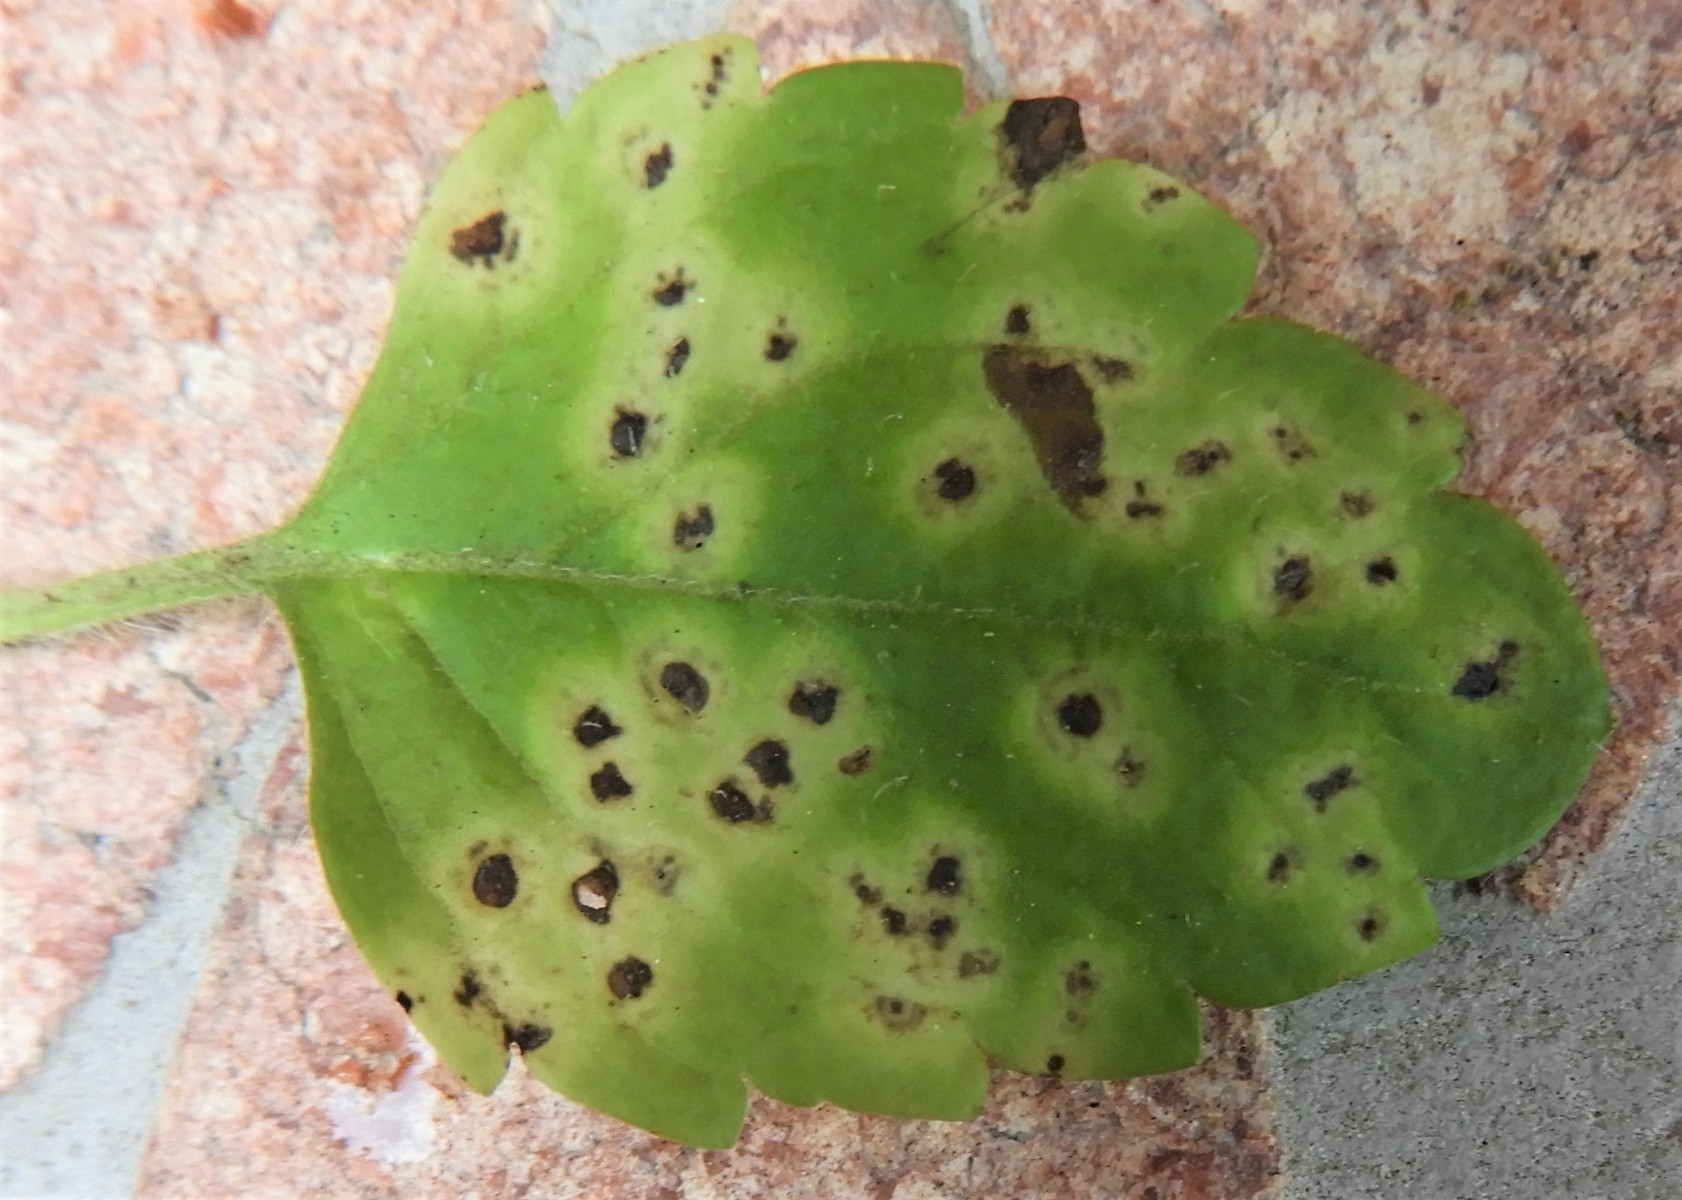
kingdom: Fungi
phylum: Basidiomycota
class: Pucciniomycetes
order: Pucciniales
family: Pucciniaceae
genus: Puccinia
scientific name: Puccinia albulensis
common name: Alpine veronica rust
